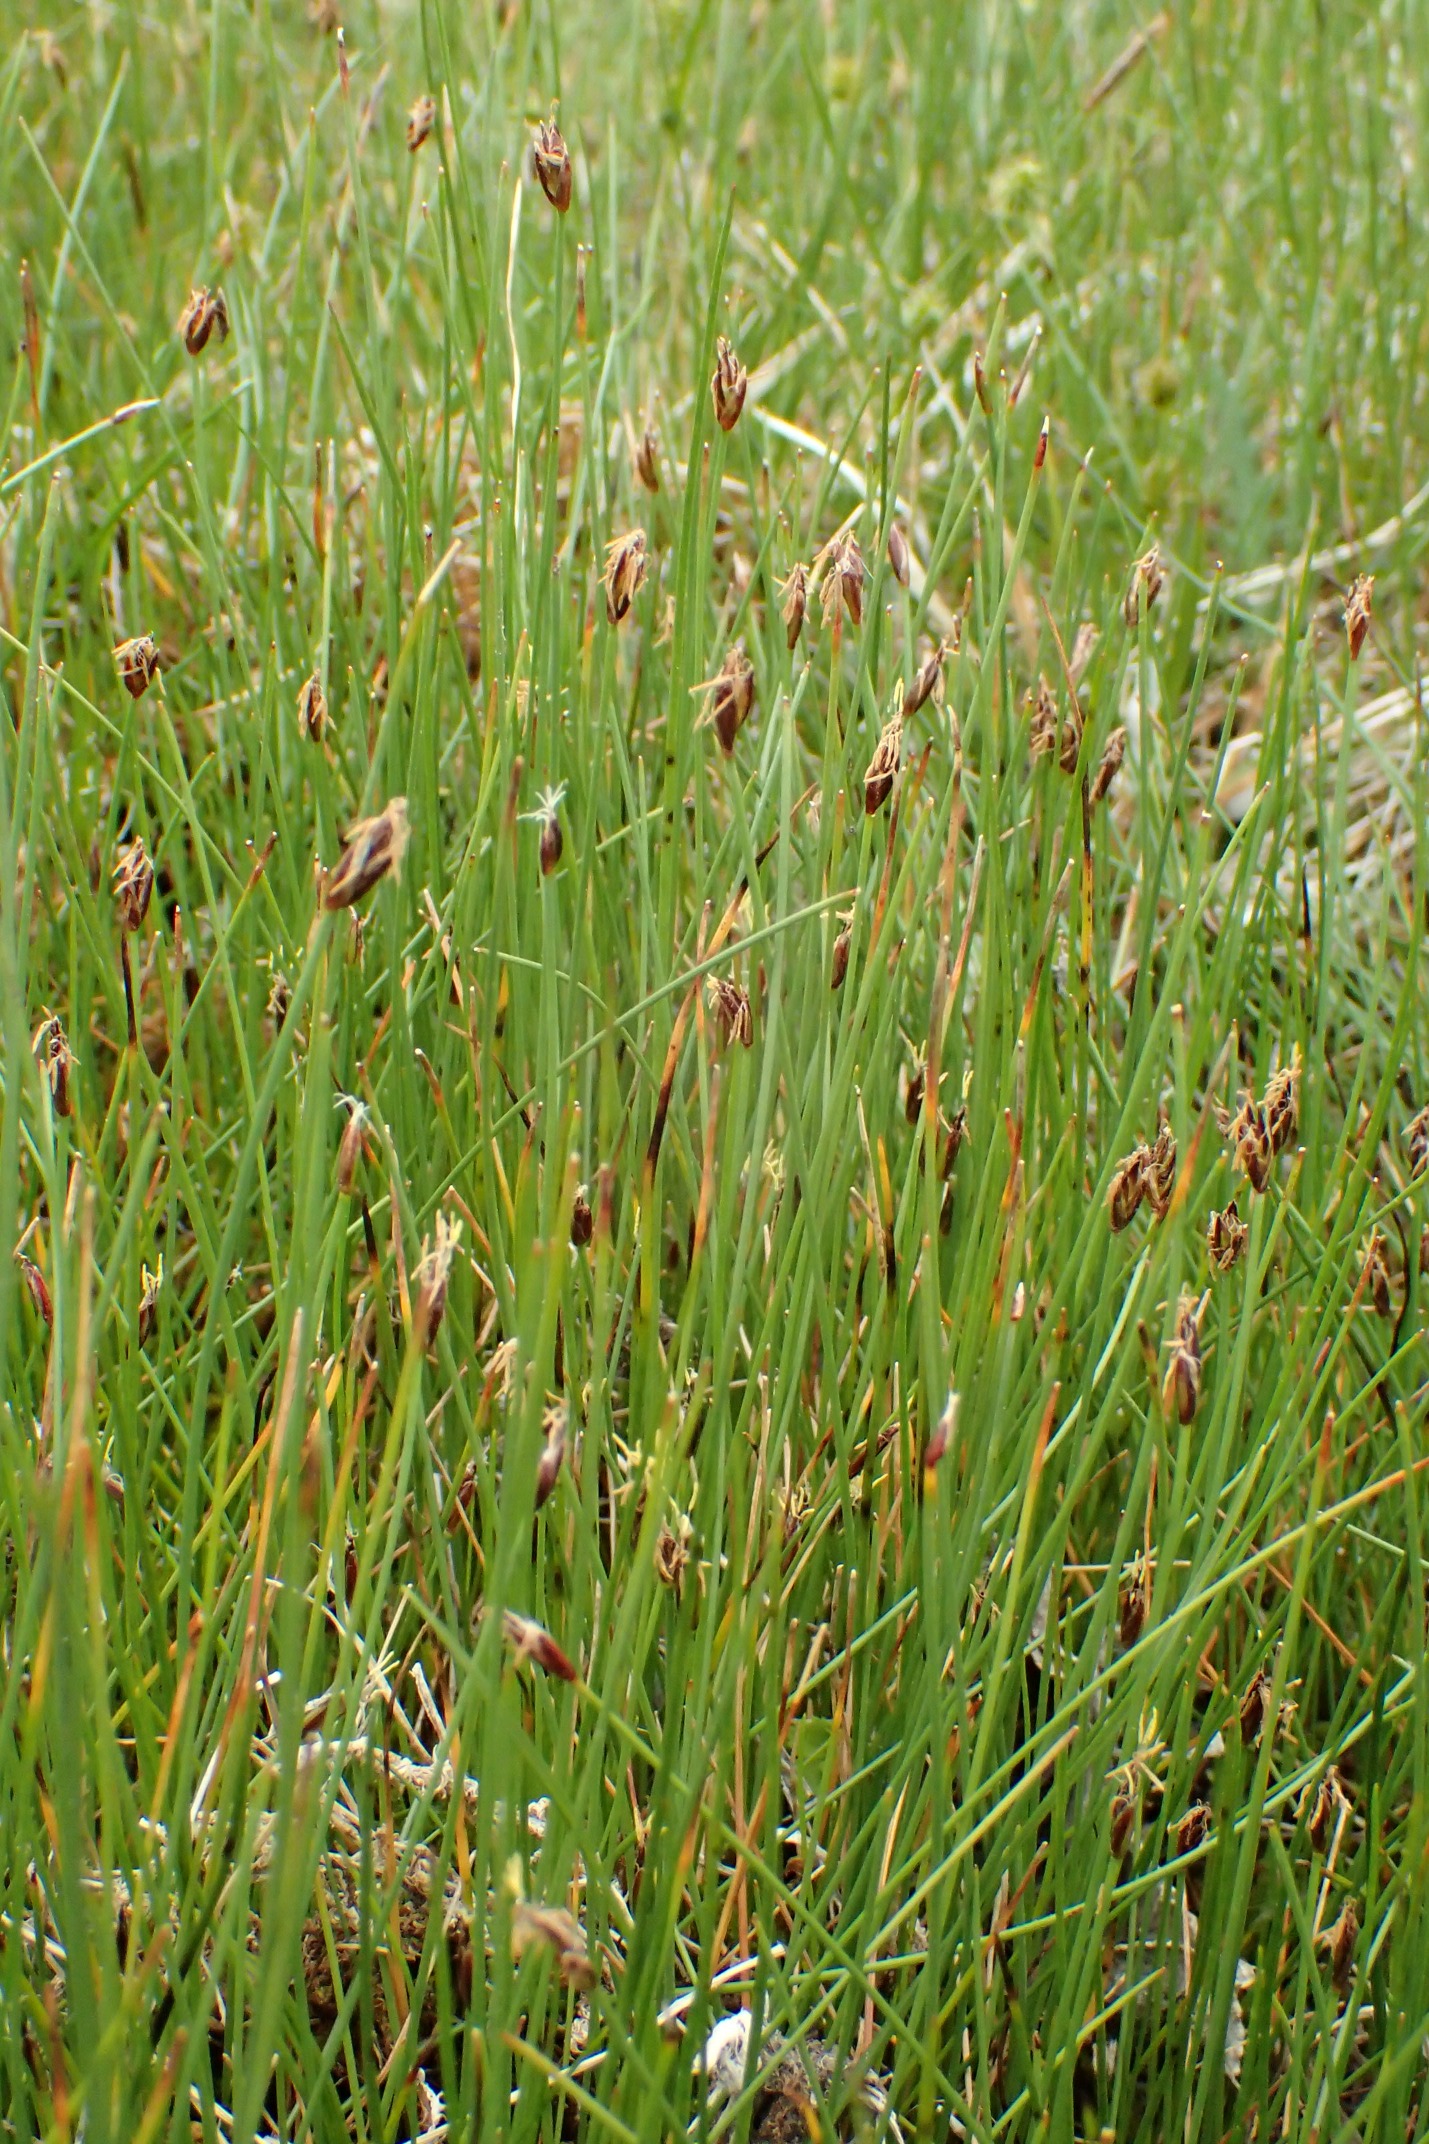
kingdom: Plantae
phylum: Tracheophyta
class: Liliopsida
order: Poales
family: Cyperaceae
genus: Eleocharis
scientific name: Eleocharis quinqueflora
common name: Fåblomstret kogleaks
